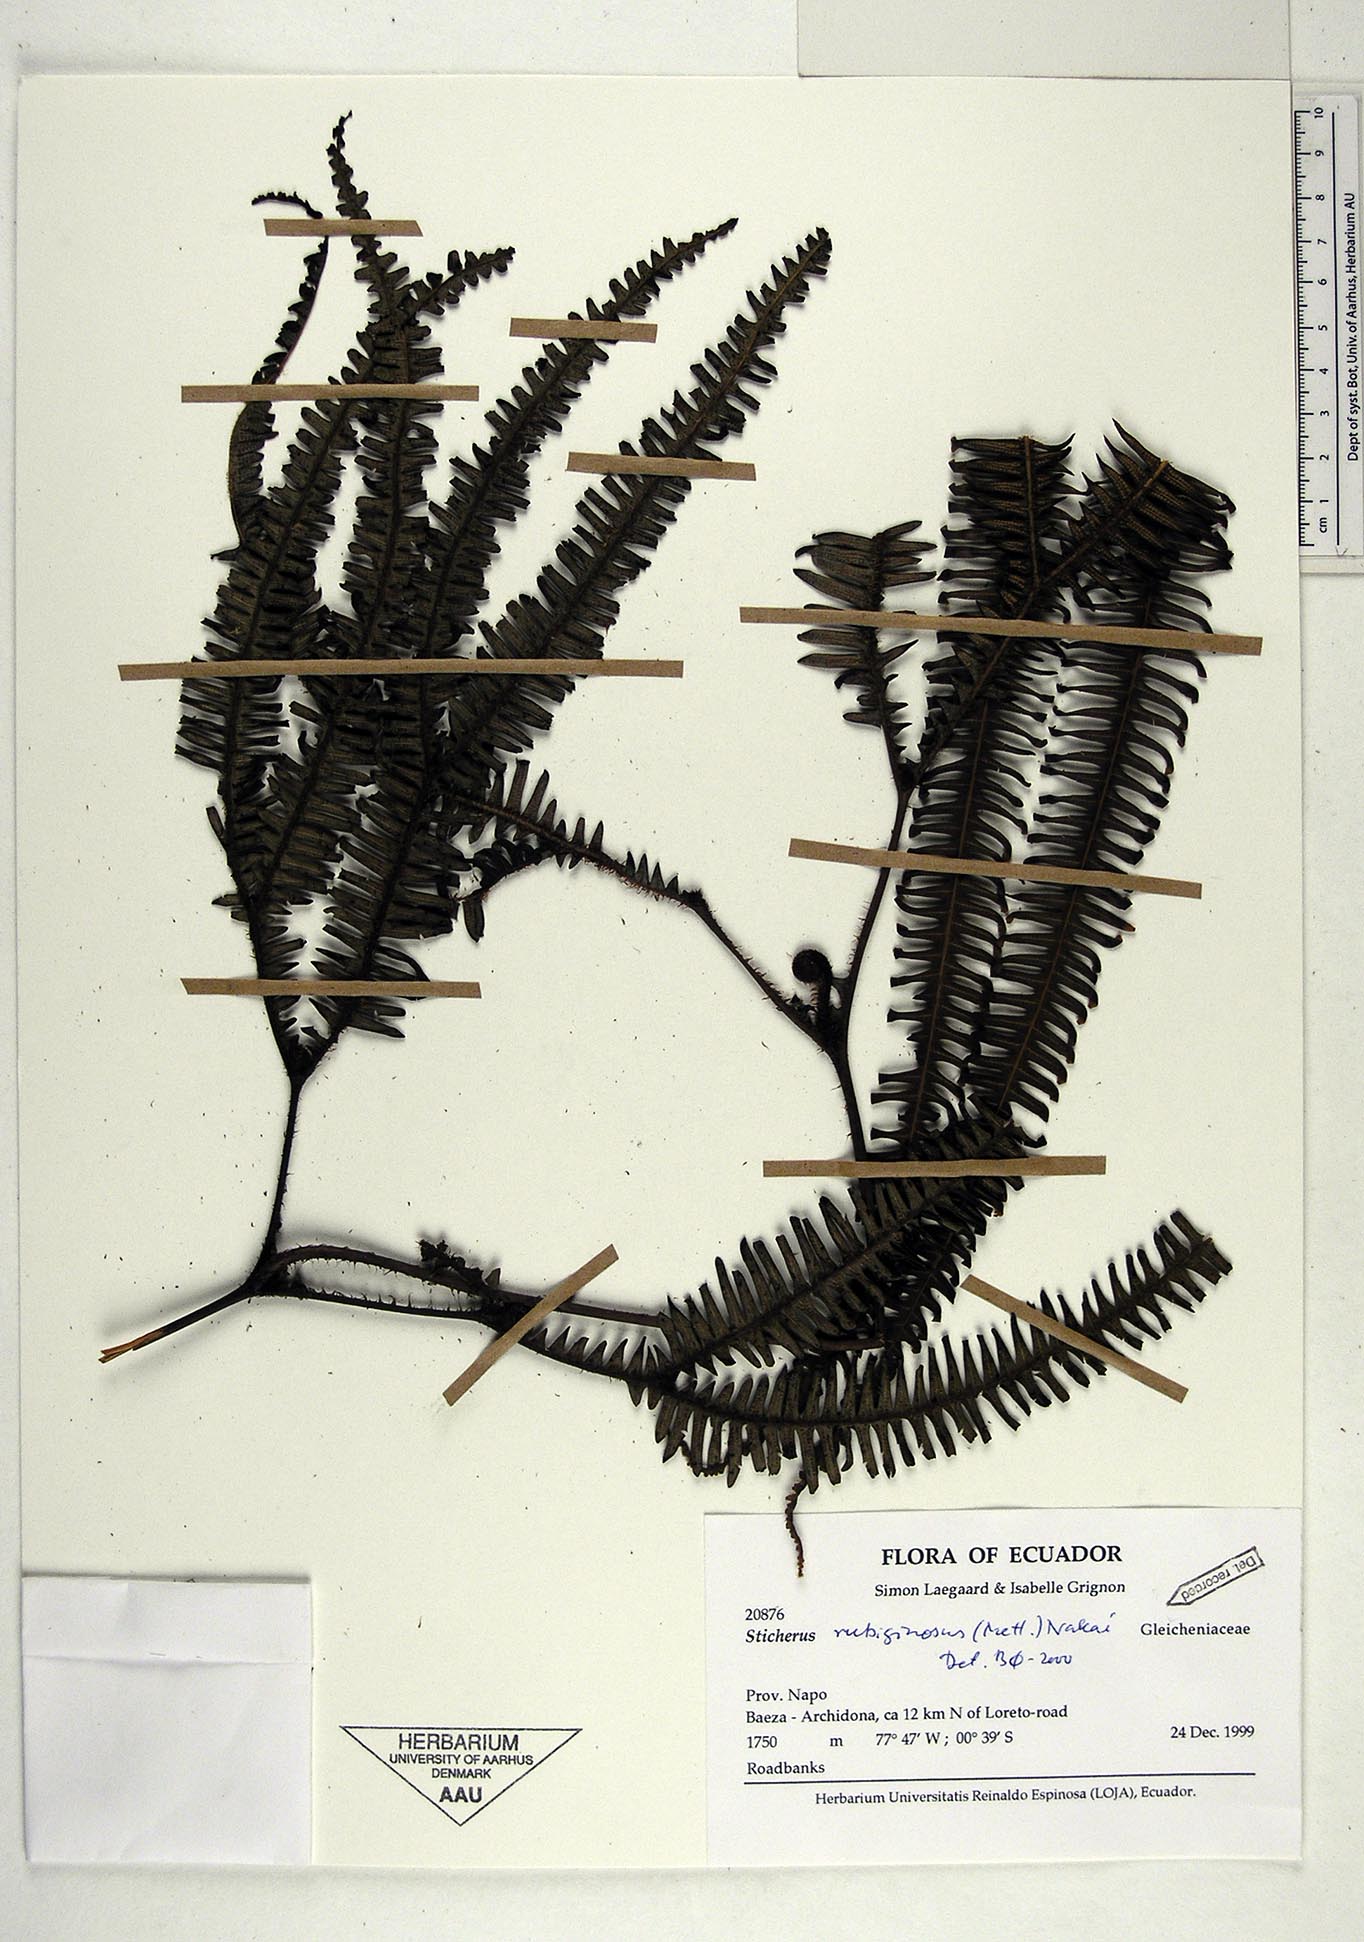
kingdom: Plantae
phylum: Tracheophyta
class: Polypodiopsida
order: Gleicheniales
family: Gleicheniaceae
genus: Sticherus
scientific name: Sticherus rubiginosus
